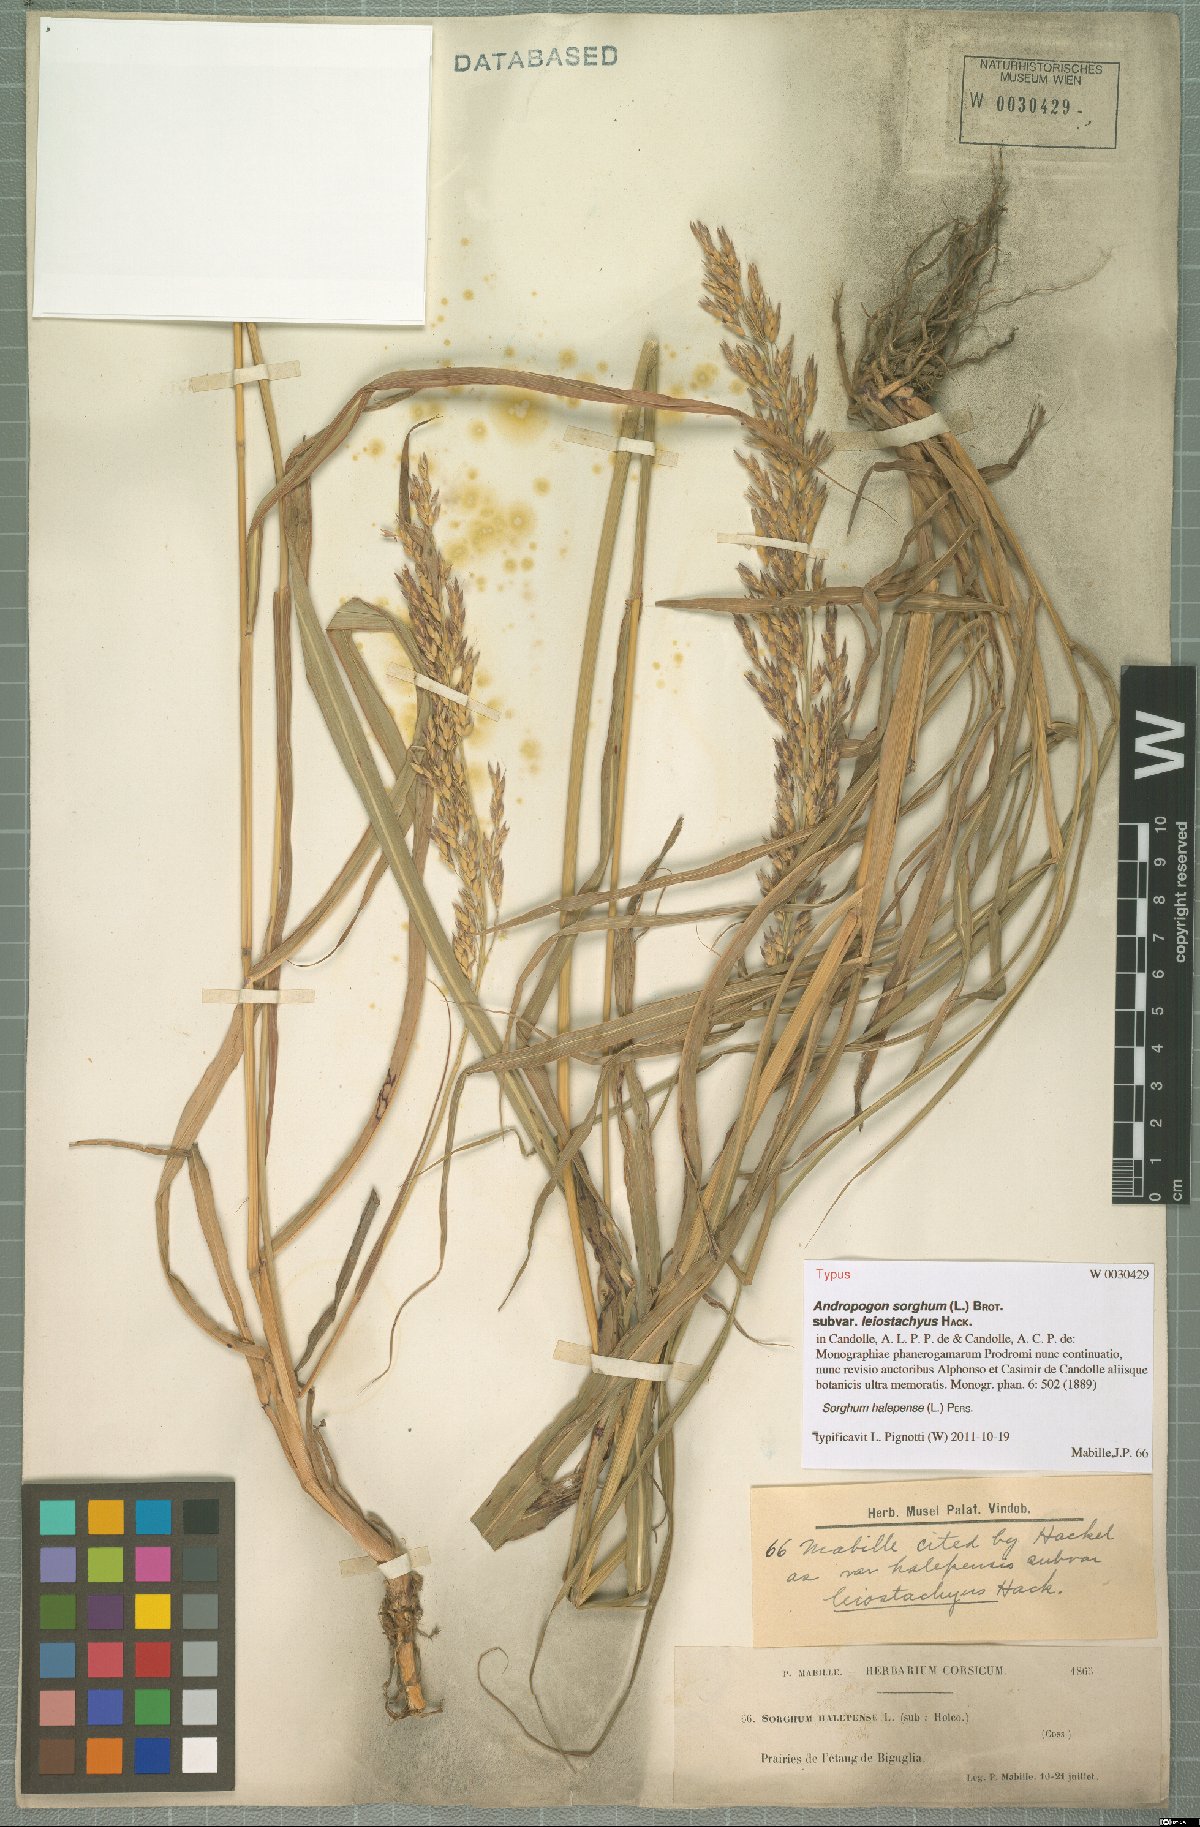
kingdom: Plantae
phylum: Tracheophyta
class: Liliopsida
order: Poales
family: Poaceae
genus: Sorghum
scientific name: Sorghum halepense
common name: Johnson-grass
